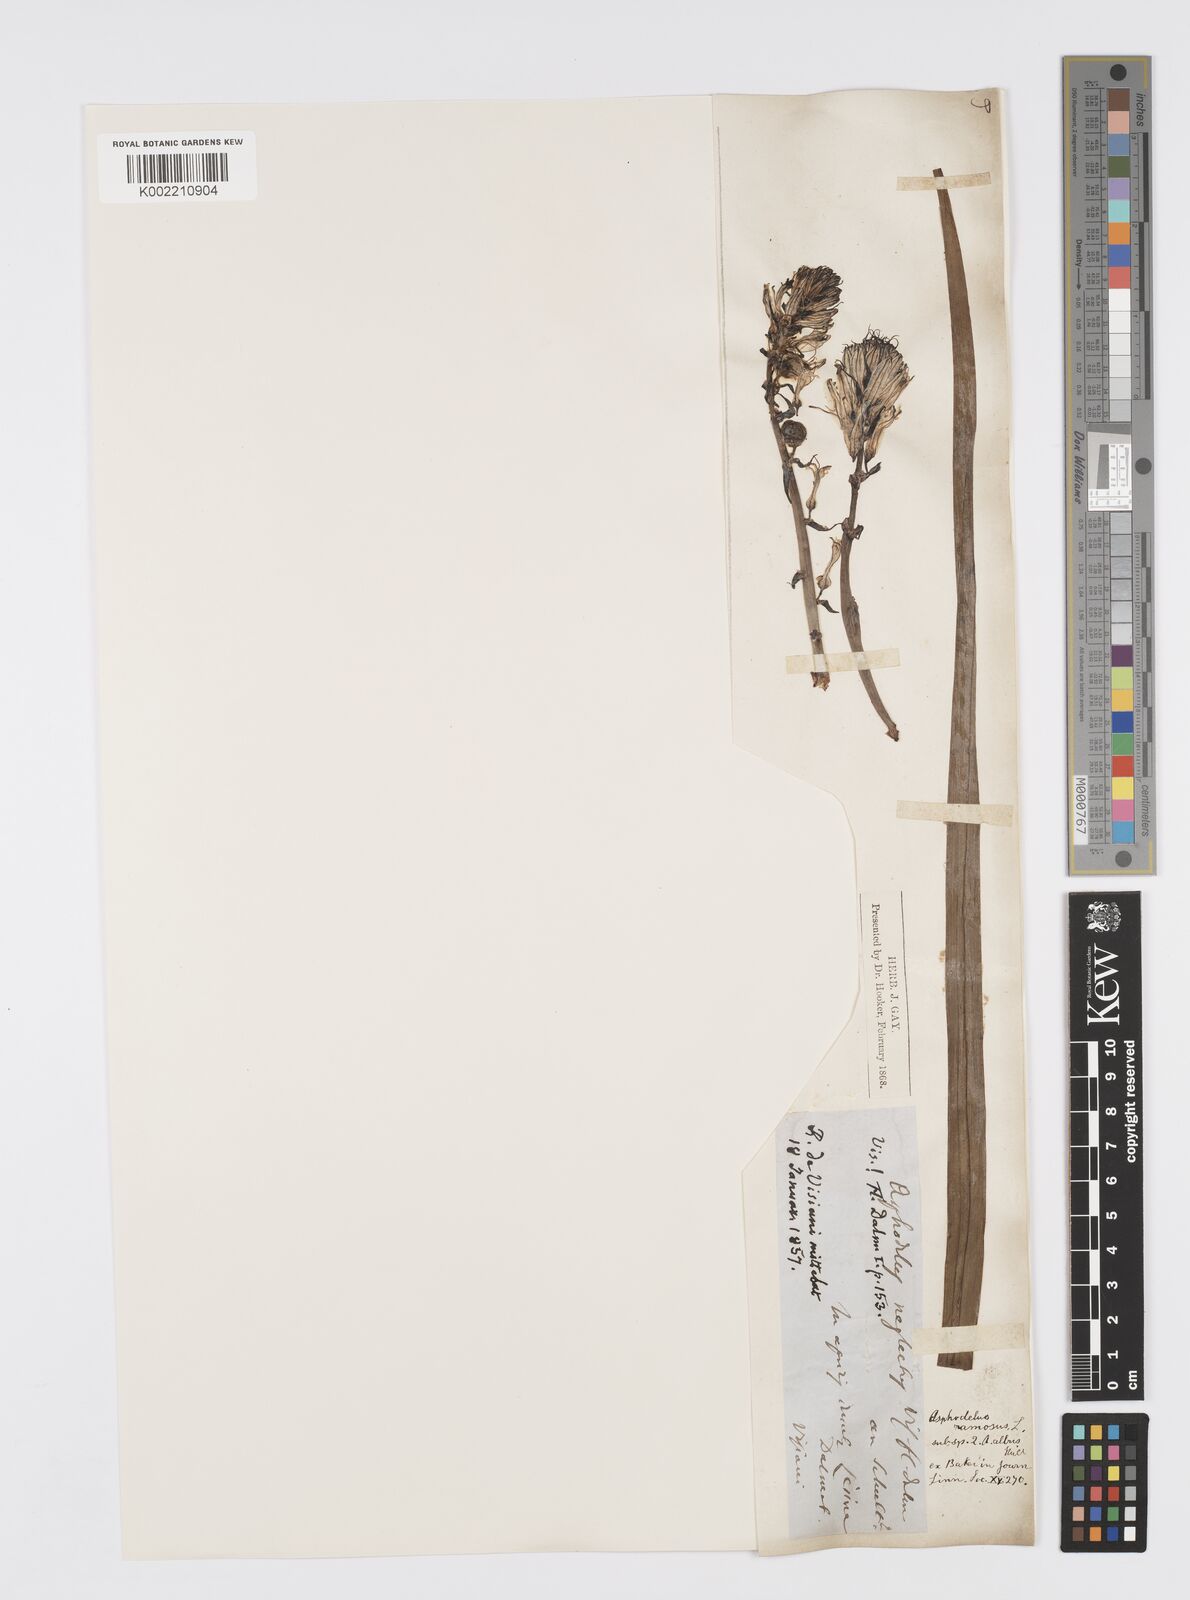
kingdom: Plantae
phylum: Tracheophyta
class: Liliopsida
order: Asparagales
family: Asphodelaceae
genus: Asphodelus
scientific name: Asphodelus ramosus
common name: Silverrod
